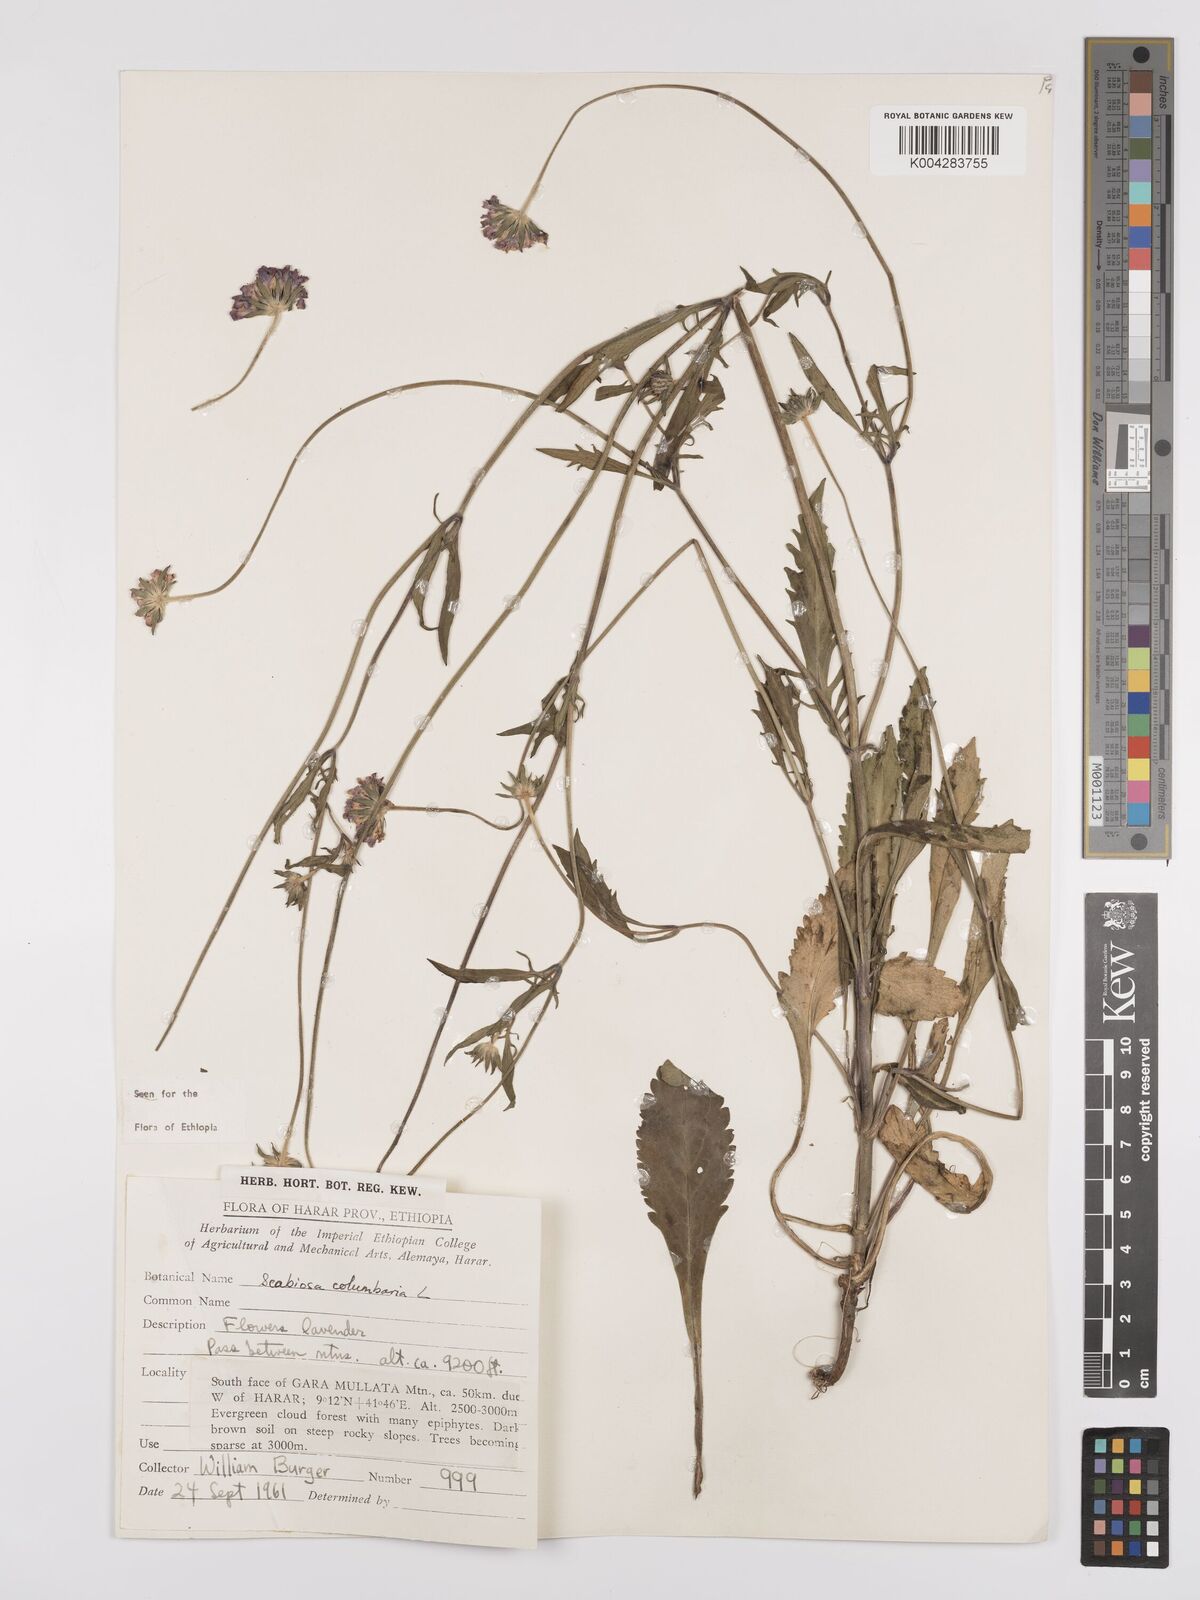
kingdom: Plantae
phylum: Tracheophyta
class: Magnoliopsida
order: Dipsacales
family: Caprifoliaceae
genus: Scabiosa
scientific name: Scabiosa columbaria
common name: Small scabious
